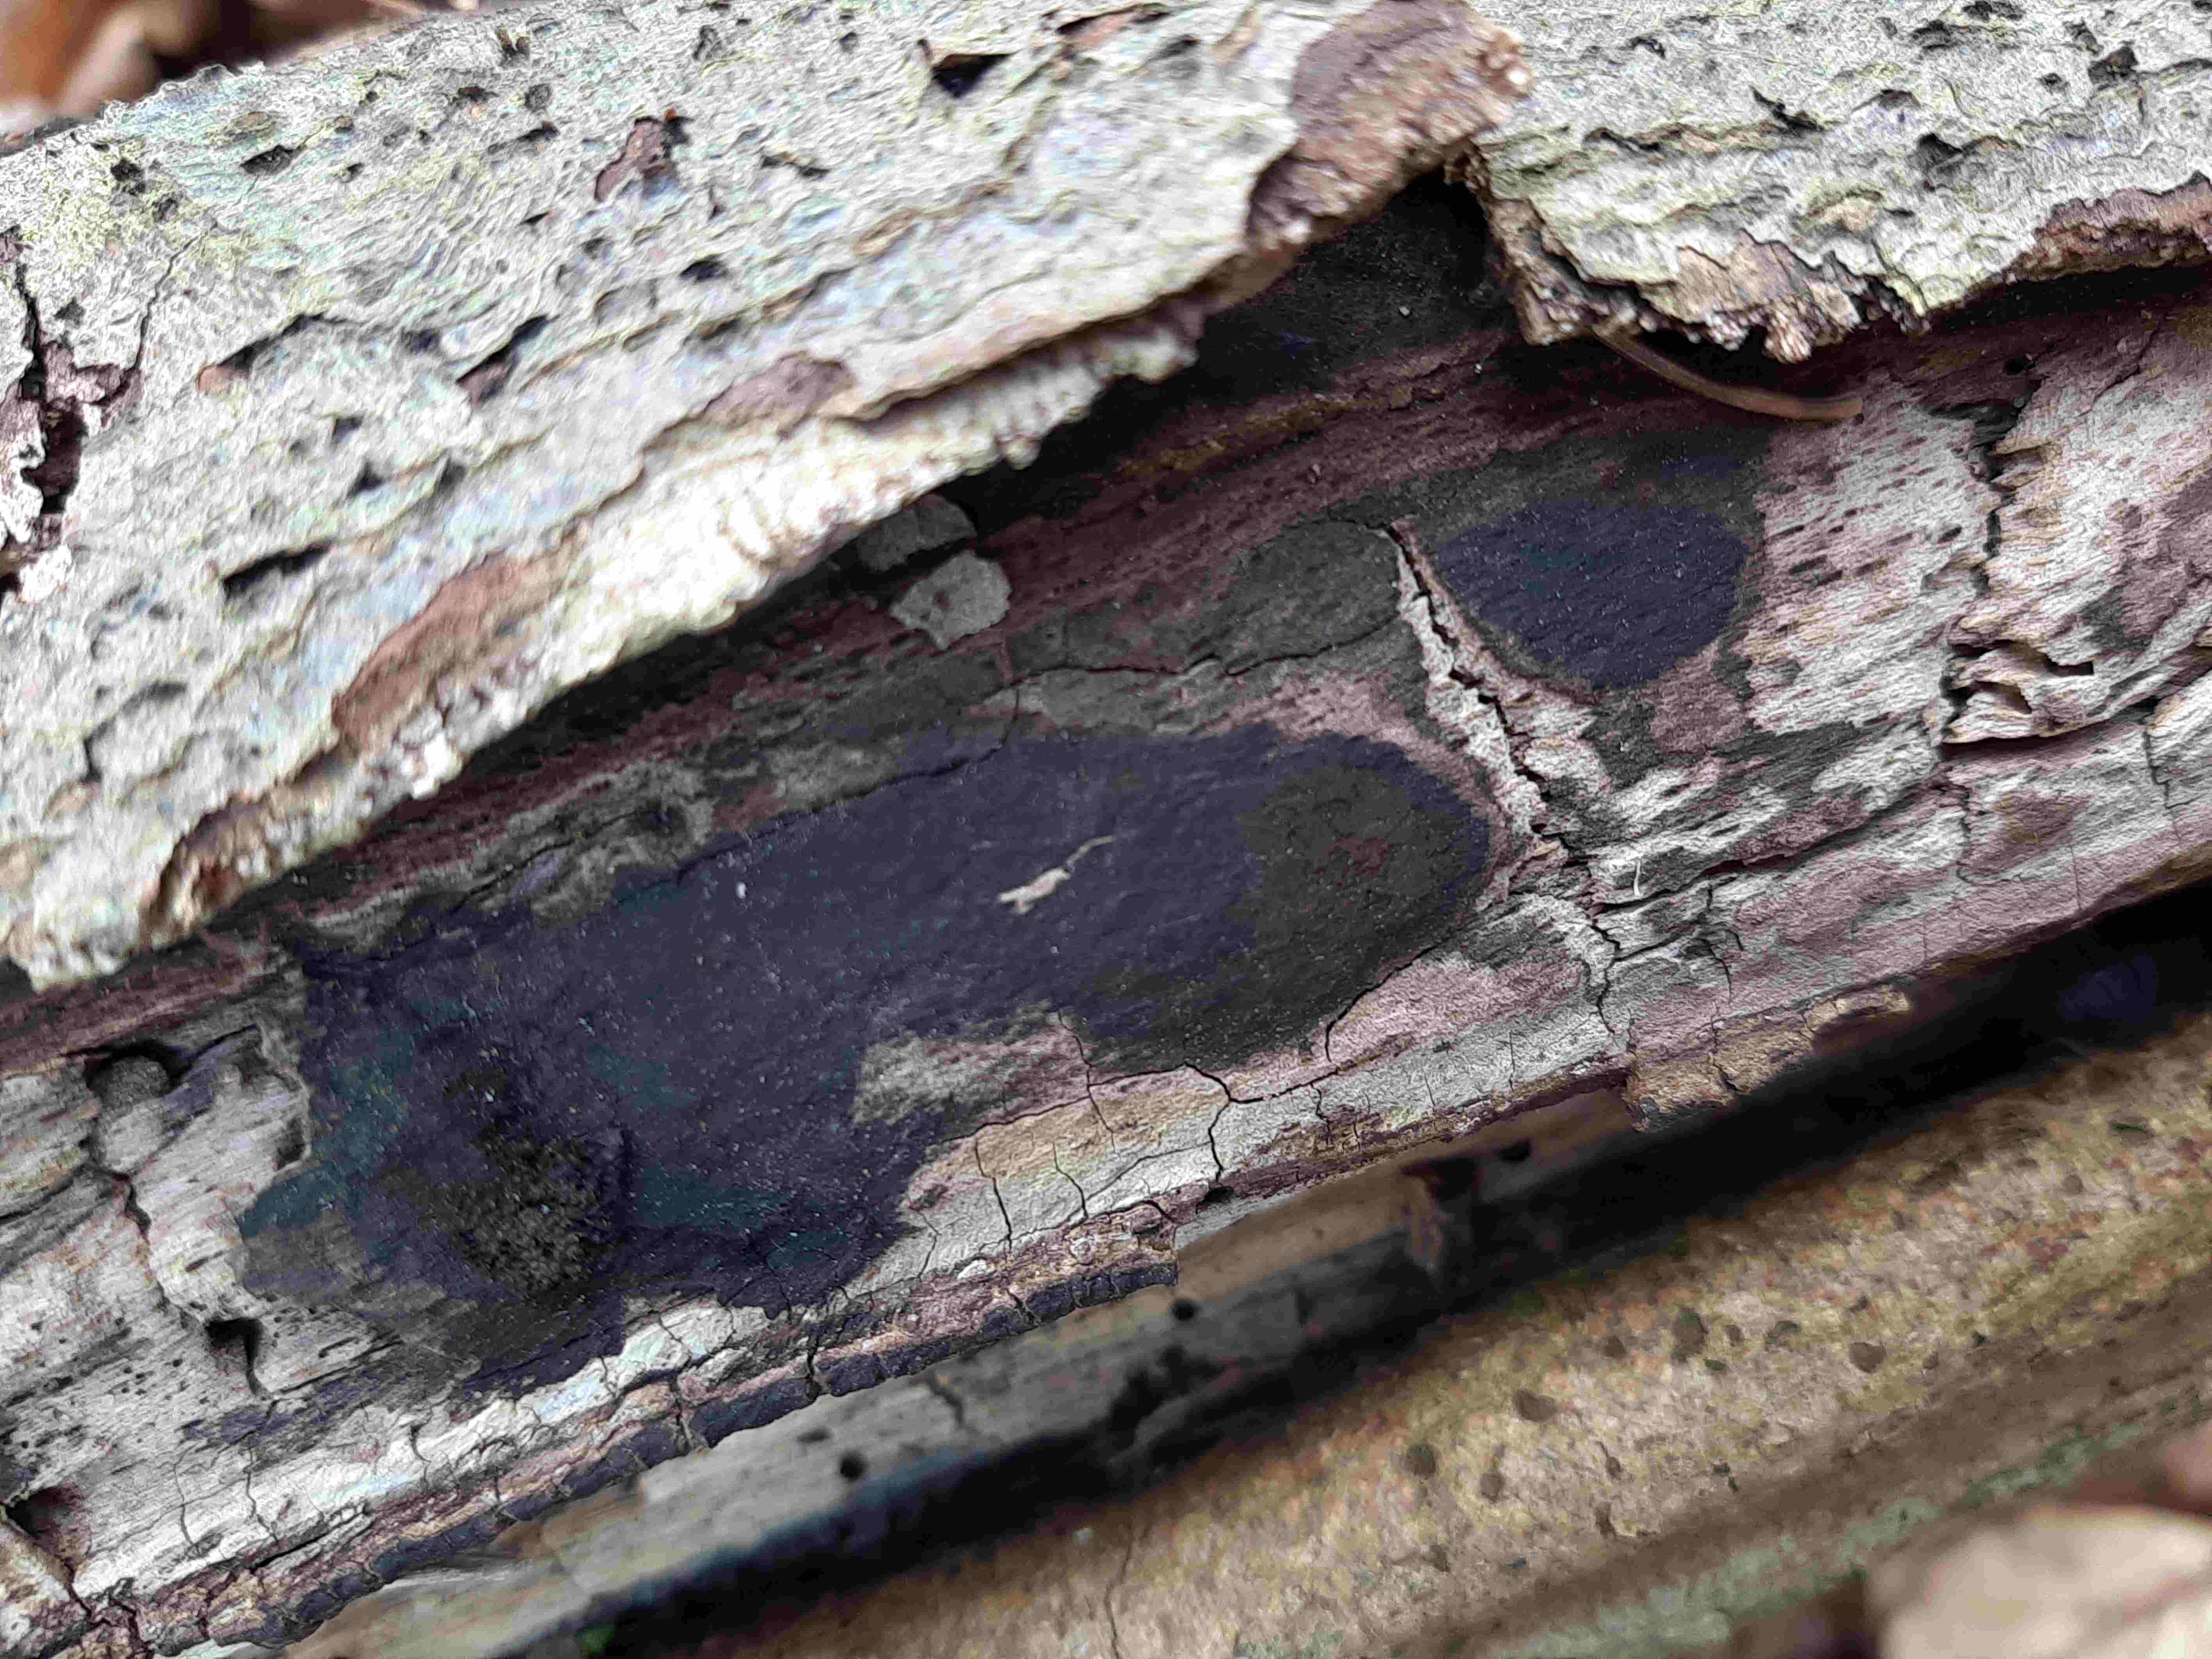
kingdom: Fungi
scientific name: Fungi
